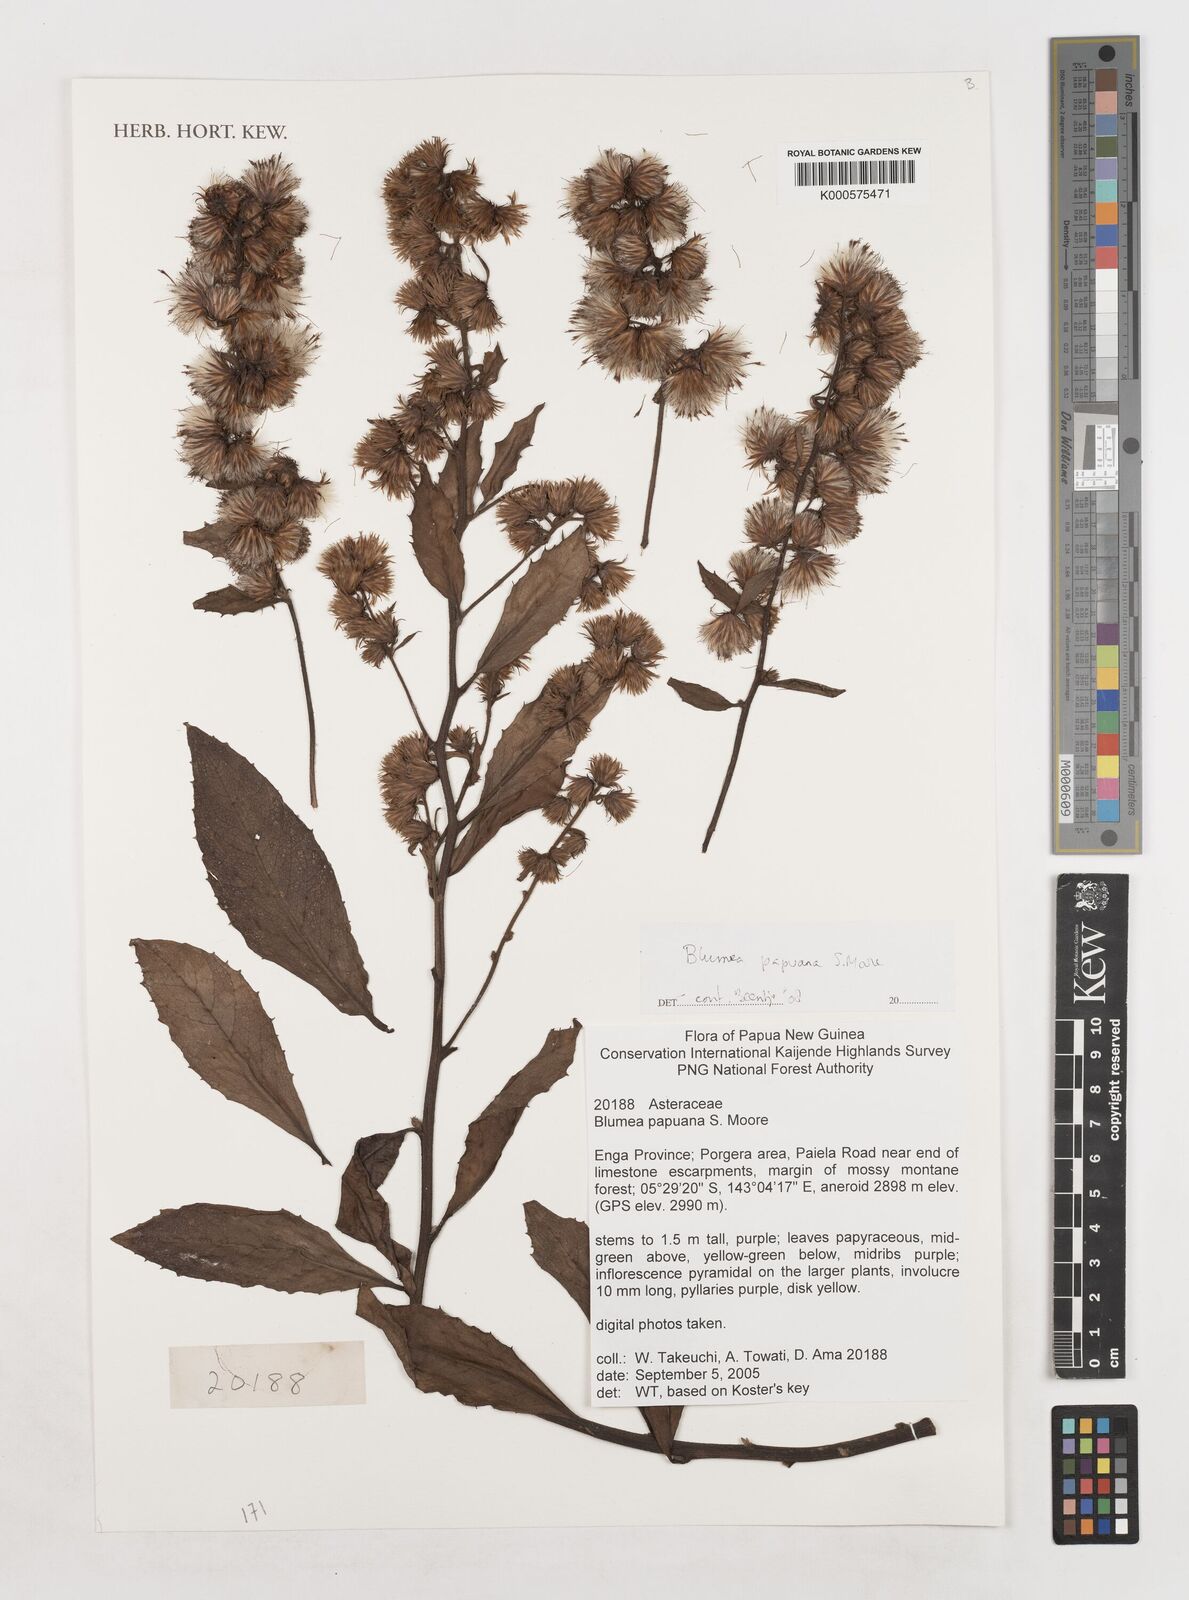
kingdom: Plantae
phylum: Tracheophyta
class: Magnoliopsida
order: Asterales
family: Asteraceae
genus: Blumea
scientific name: Blumea papuana
